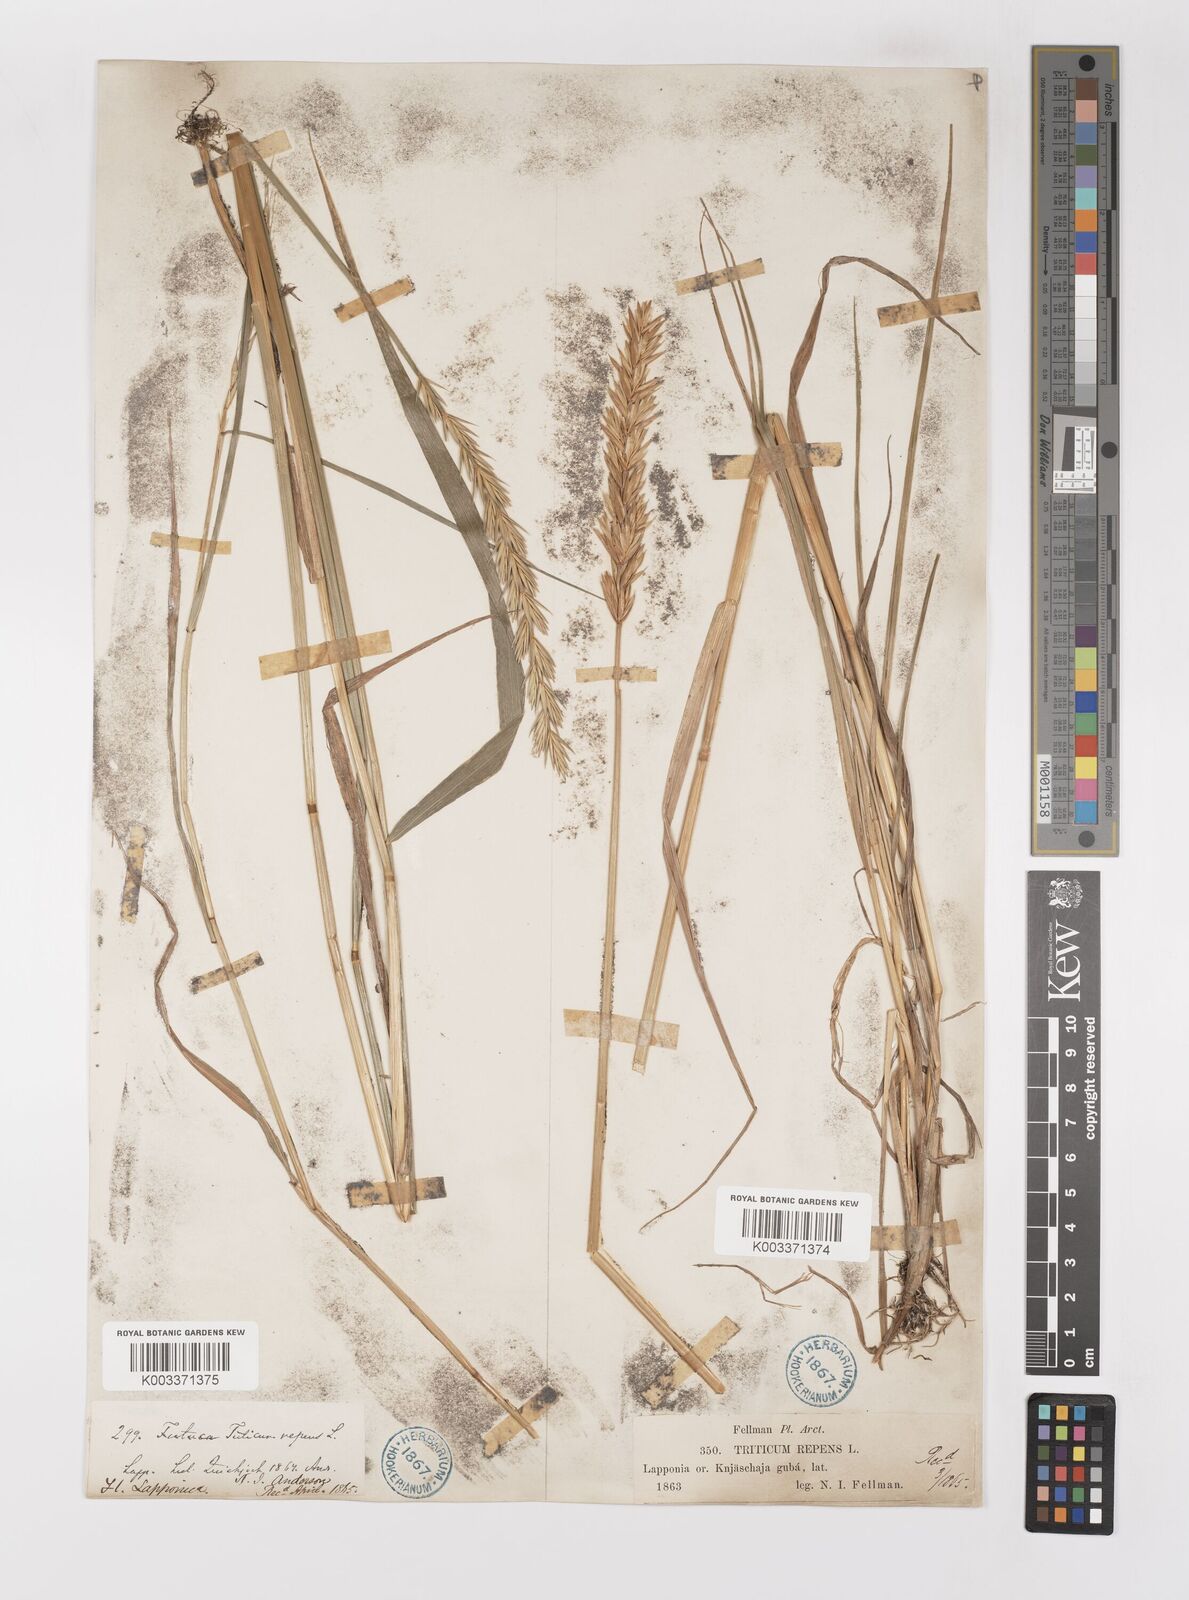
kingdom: Plantae
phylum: Tracheophyta
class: Liliopsida
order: Poales
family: Poaceae
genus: Elymus
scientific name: Elymus repens
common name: Quackgrass
